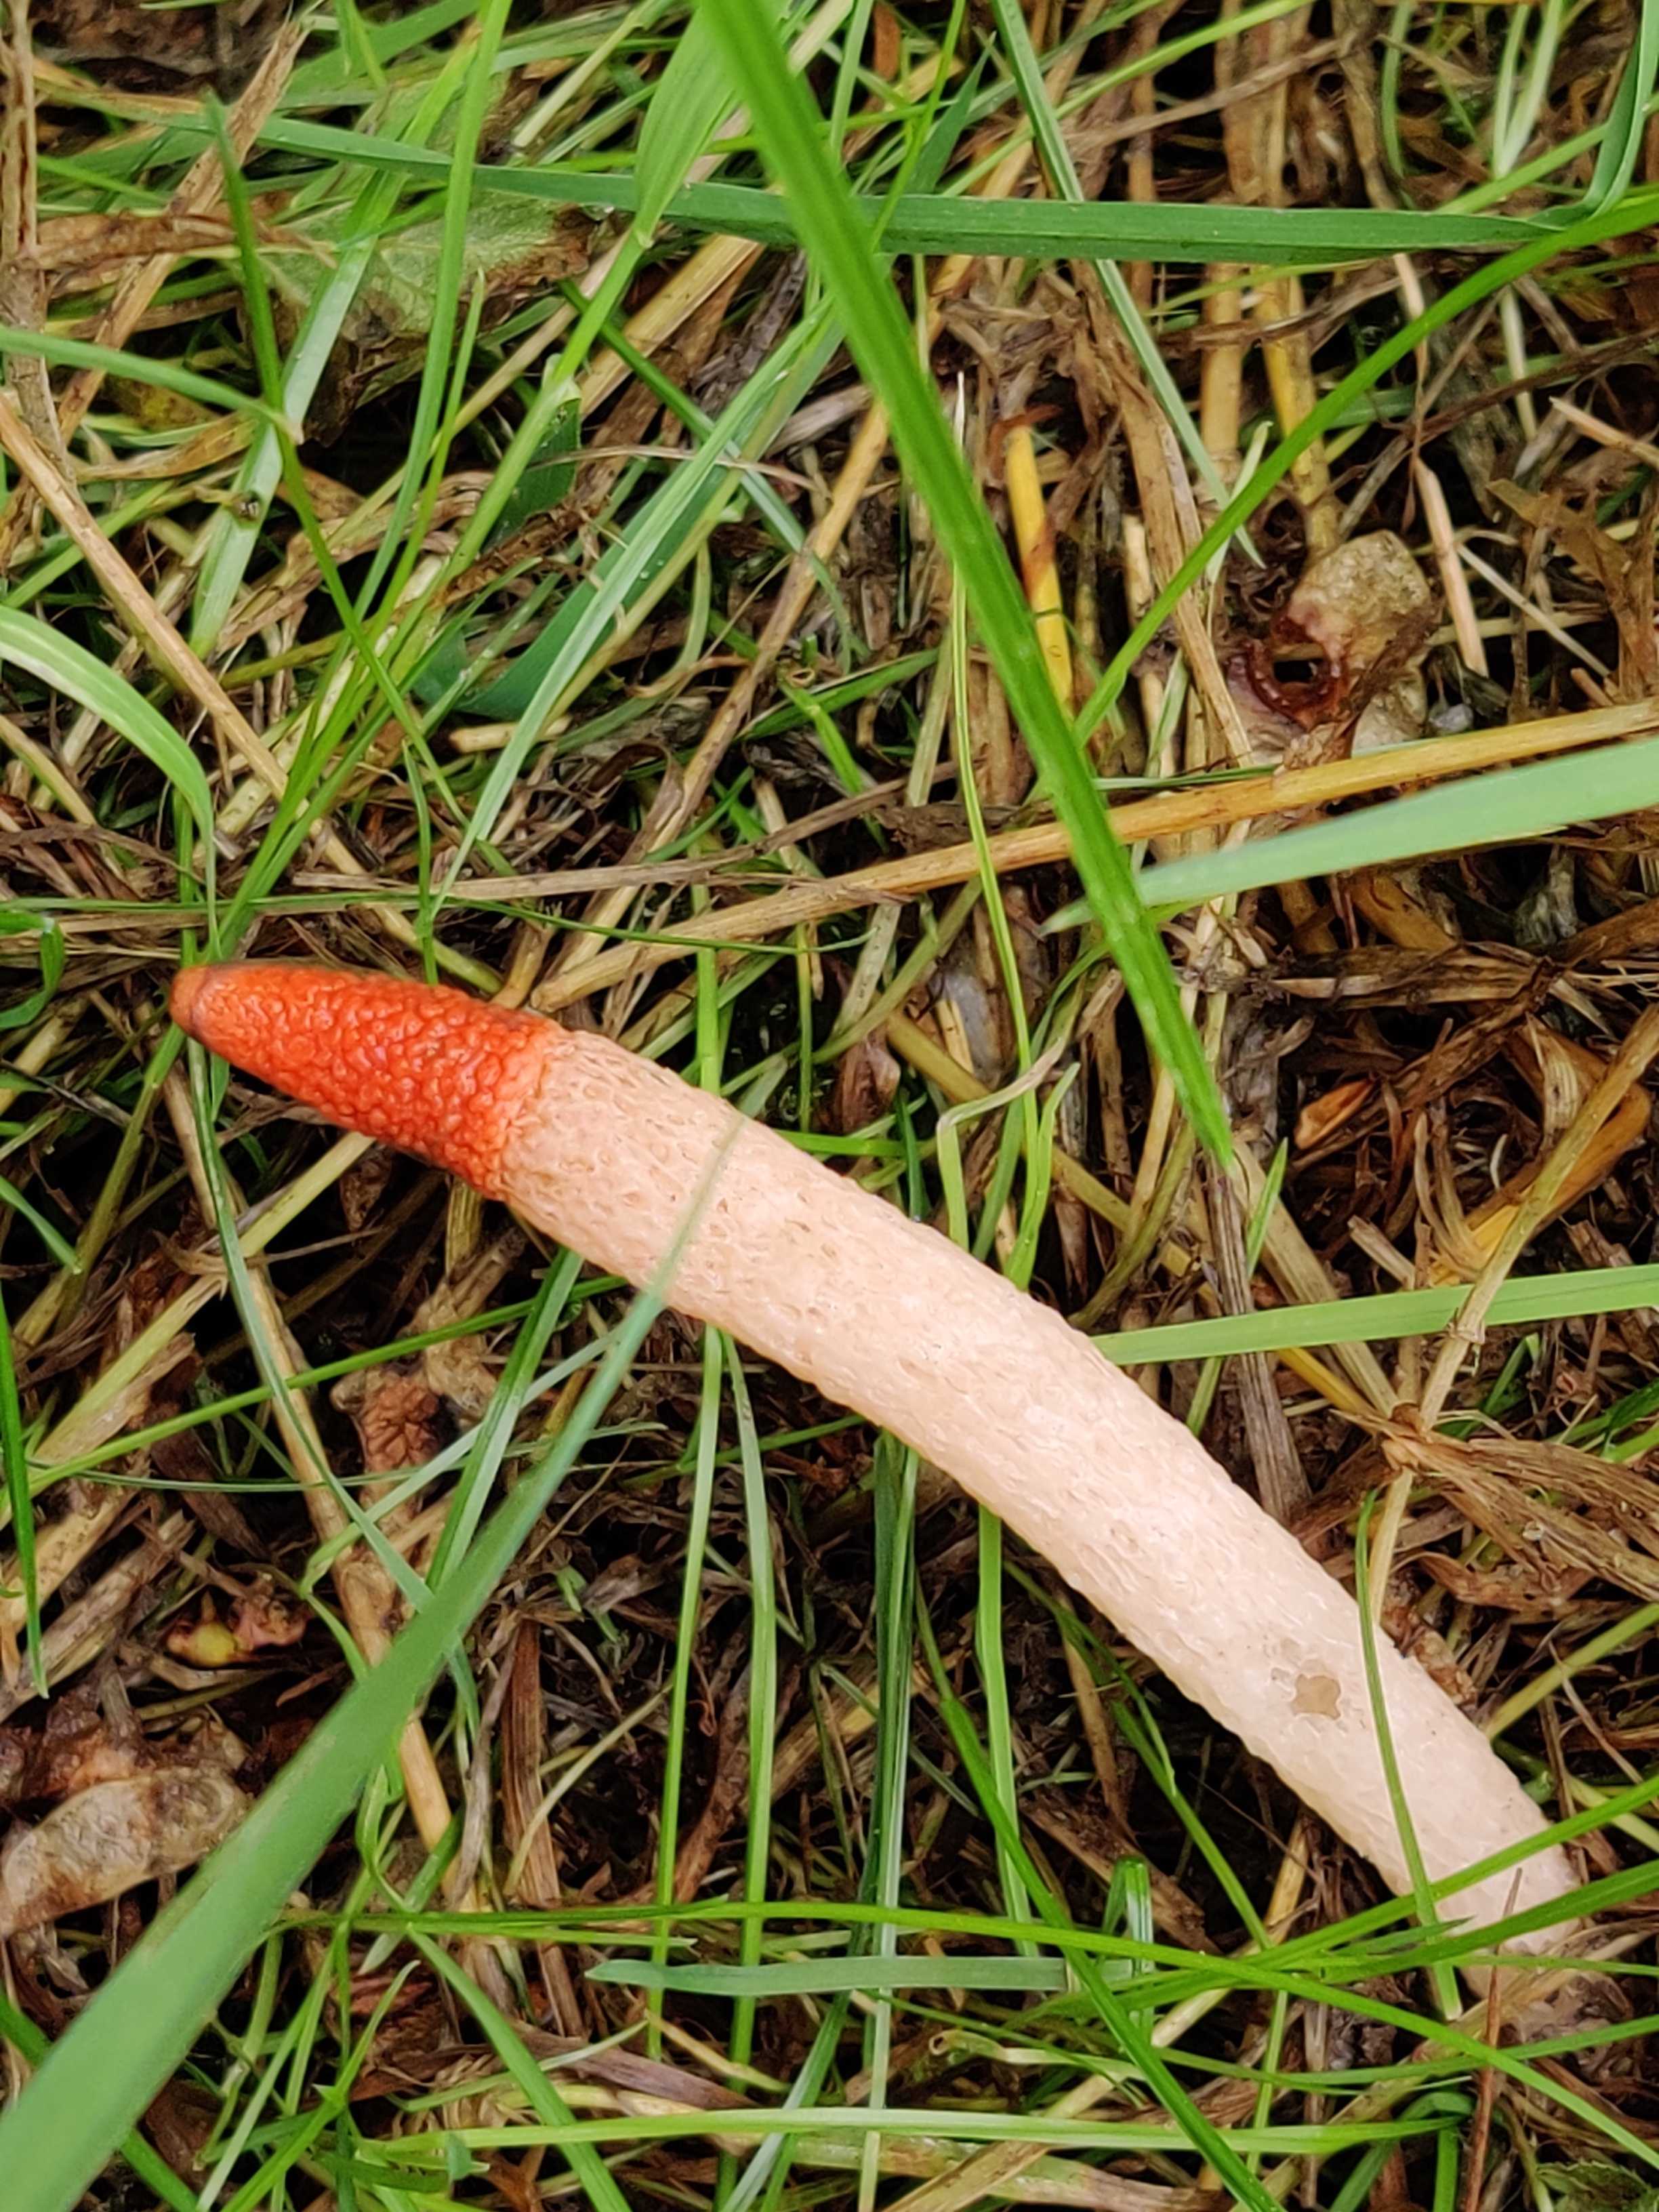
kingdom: Fungi
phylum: Basidiomycota
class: Agaricomycetes
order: Phallales
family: Phallaceae
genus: Mutinus
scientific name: Mutinus caninus
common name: hunde-stinksvamp
